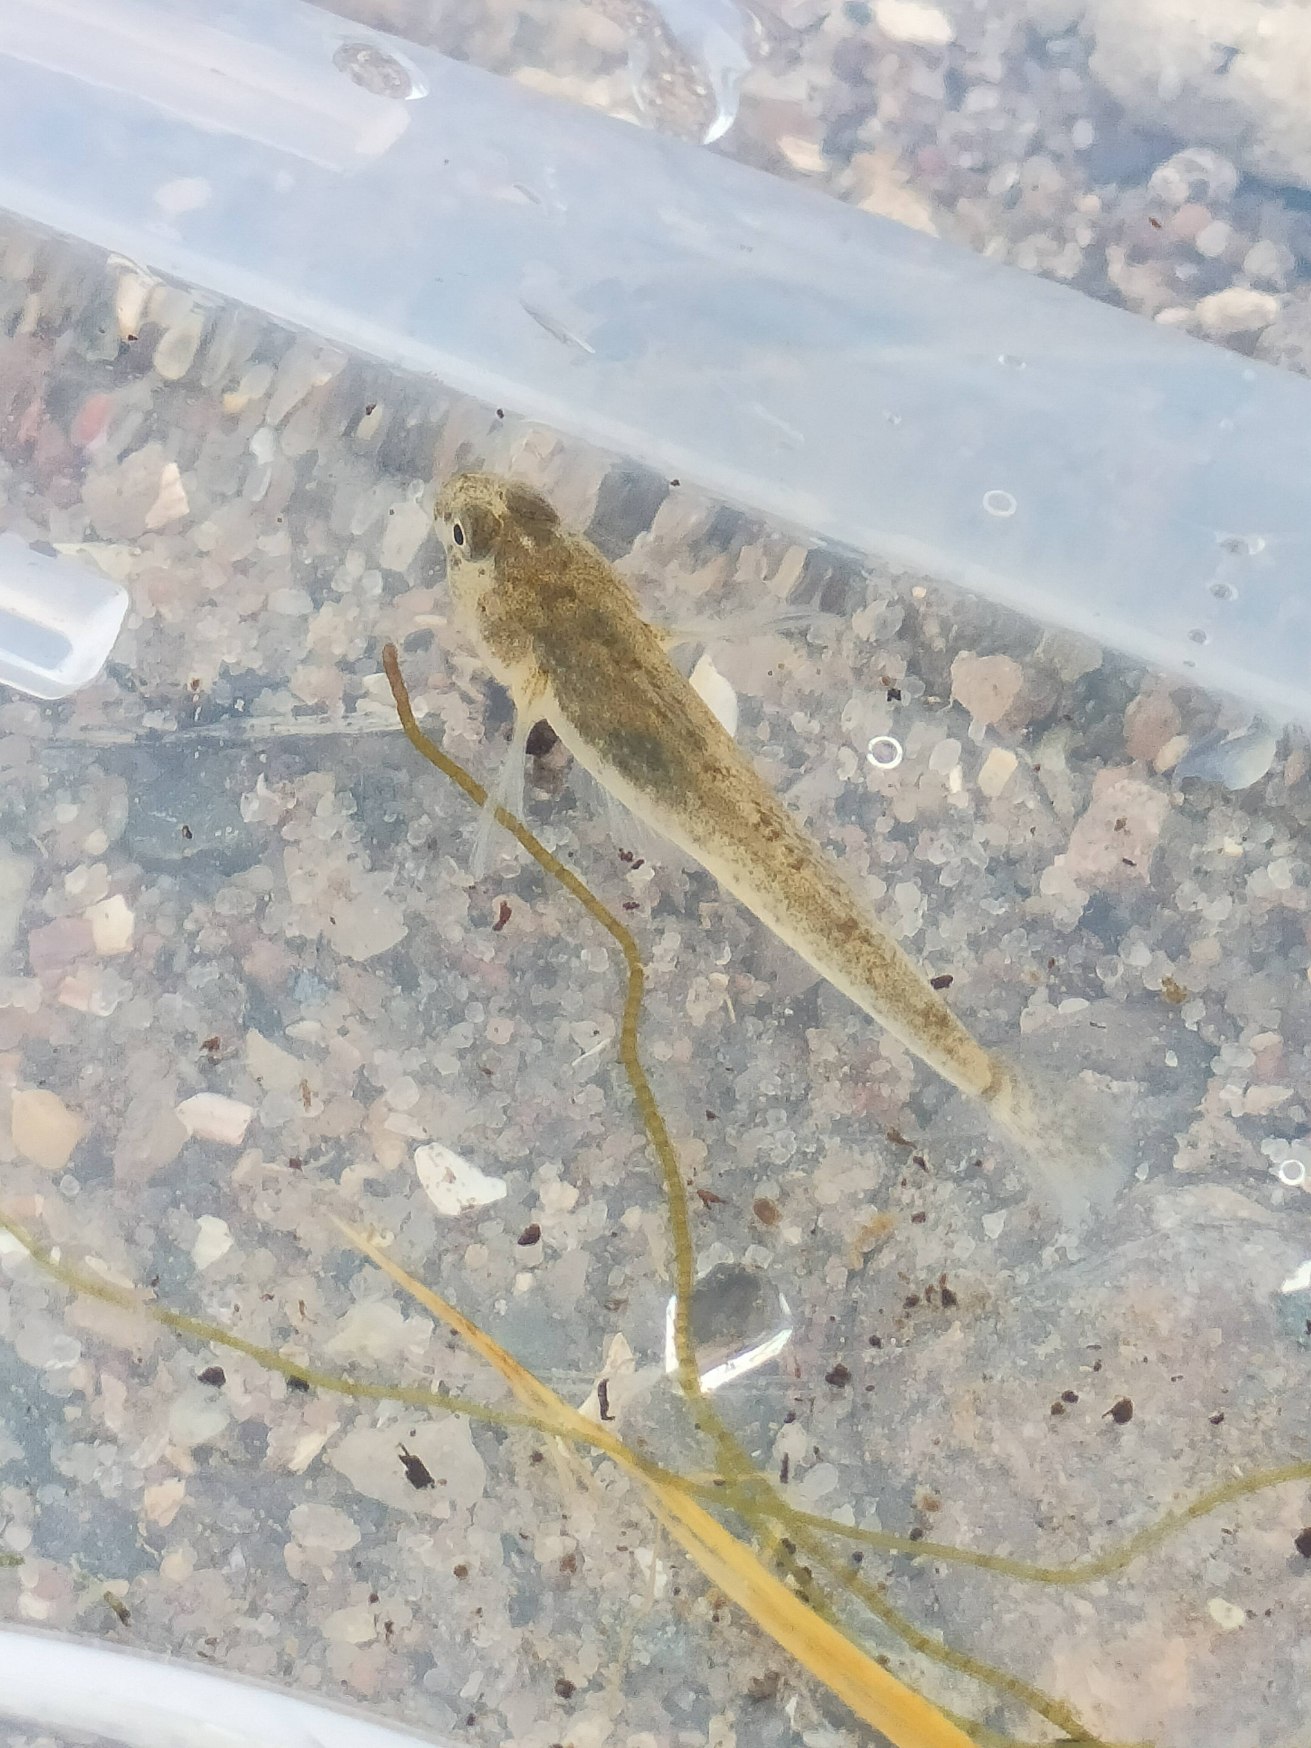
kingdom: Animalia
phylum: Chordata
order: Perciformes
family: Gobiidae
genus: Pomatoschistus
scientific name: Pomatoschistus microps
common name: Lerkutling
